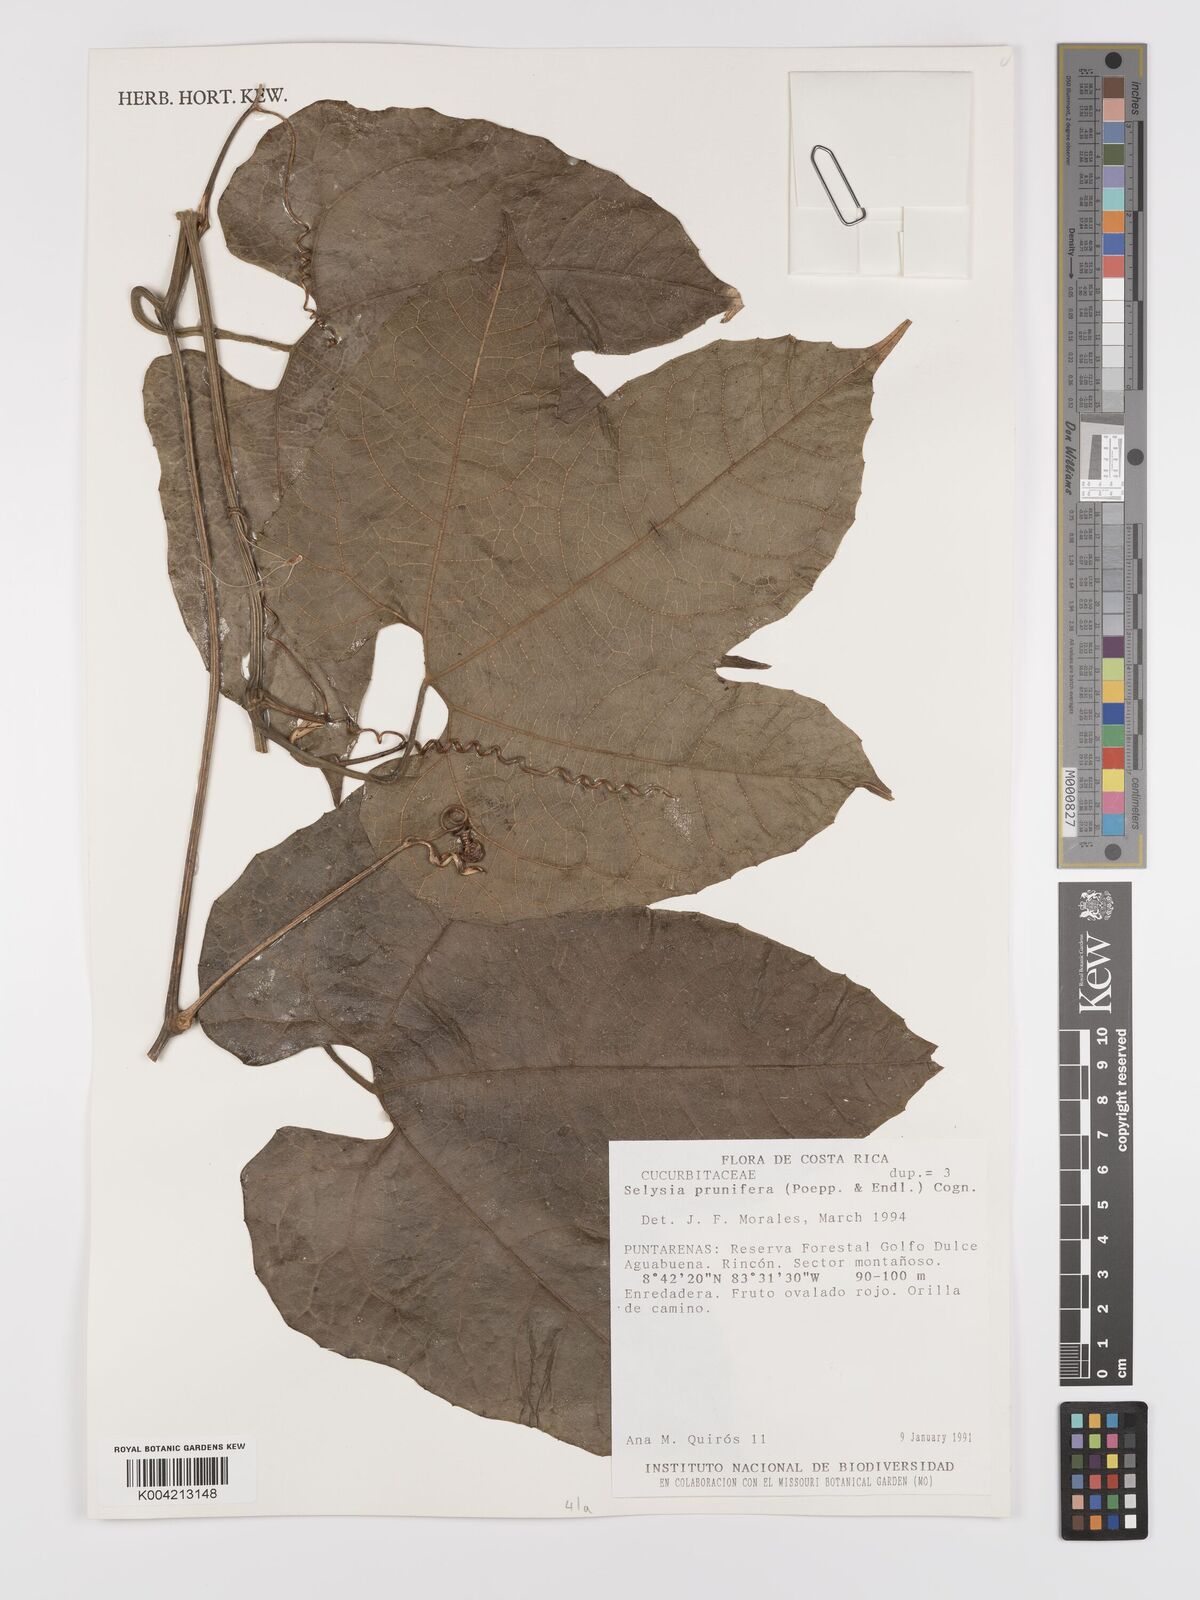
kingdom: Plantae
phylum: Tracheophyta
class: Magnoliopsida
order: Cucurbitales
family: Cucurbitaceae
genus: Cayaponia
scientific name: Cayaponia prunifera
